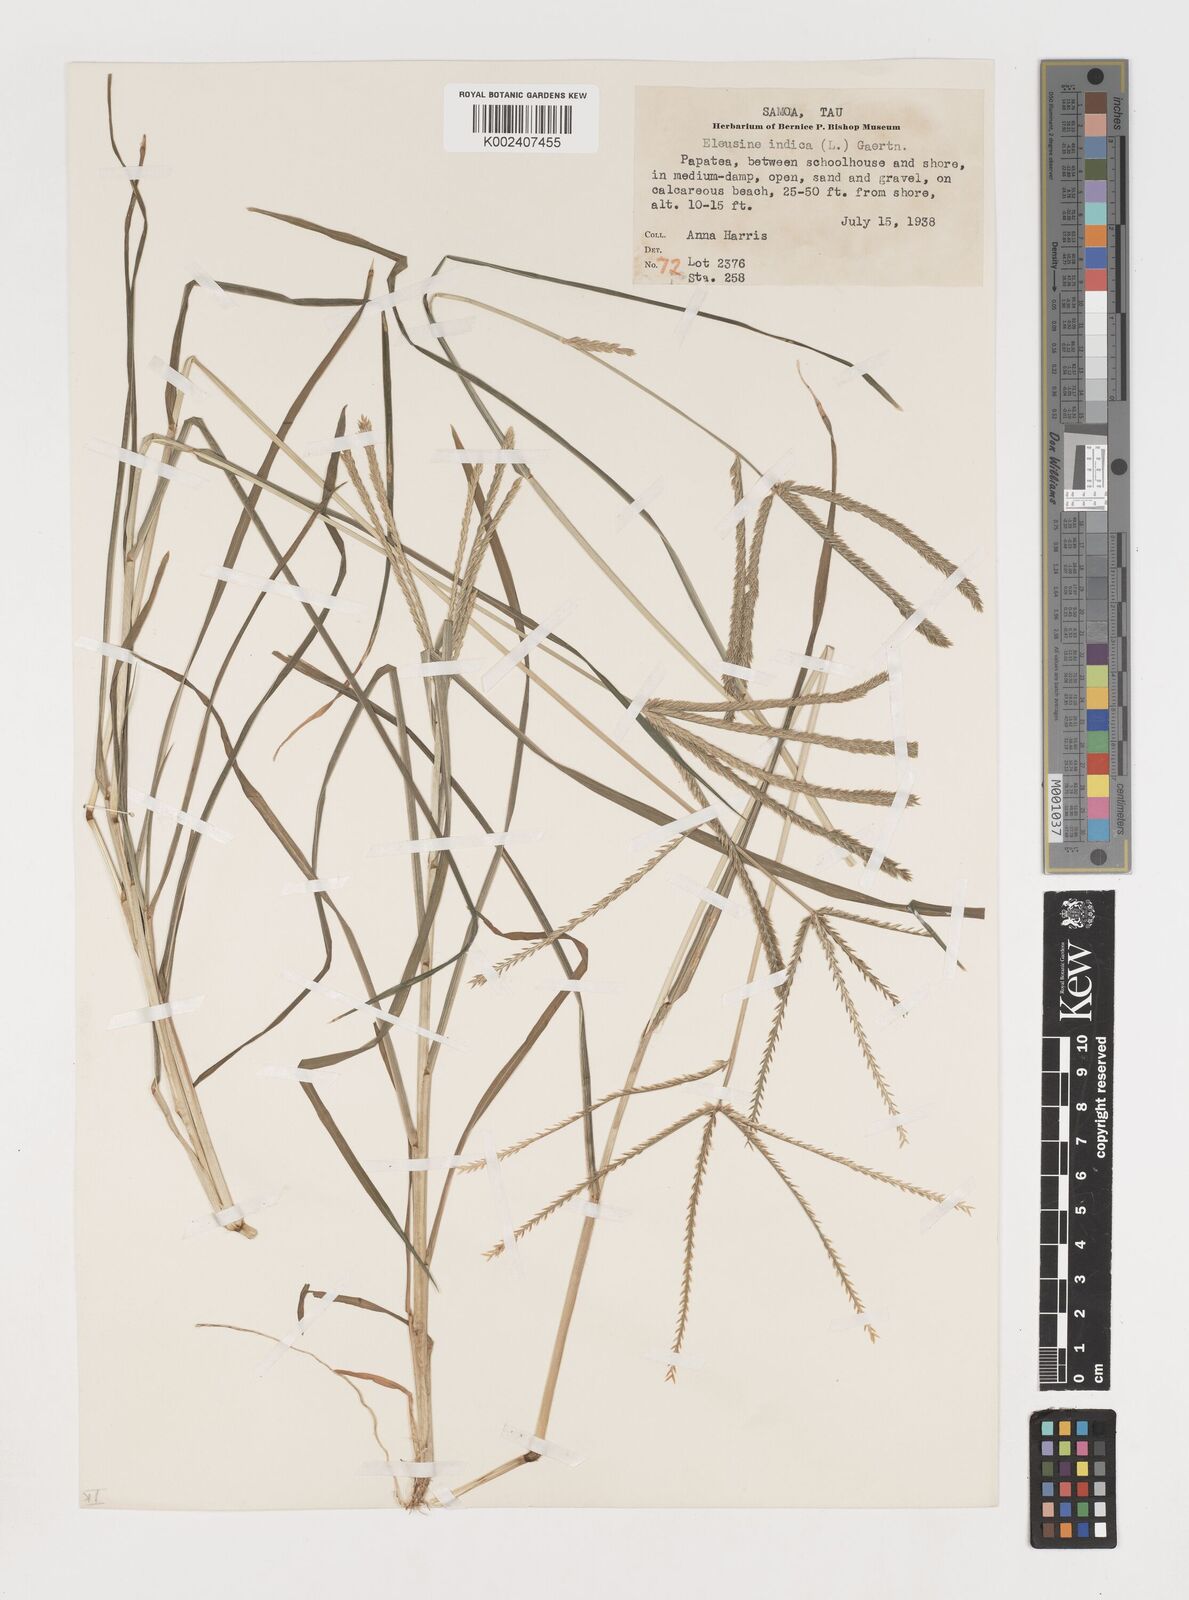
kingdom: Plantae
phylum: Tracheophyta
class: Liliopsida
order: Poales
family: Poaceae
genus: Eleusine
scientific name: Eleusine indica
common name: Yard-grass
